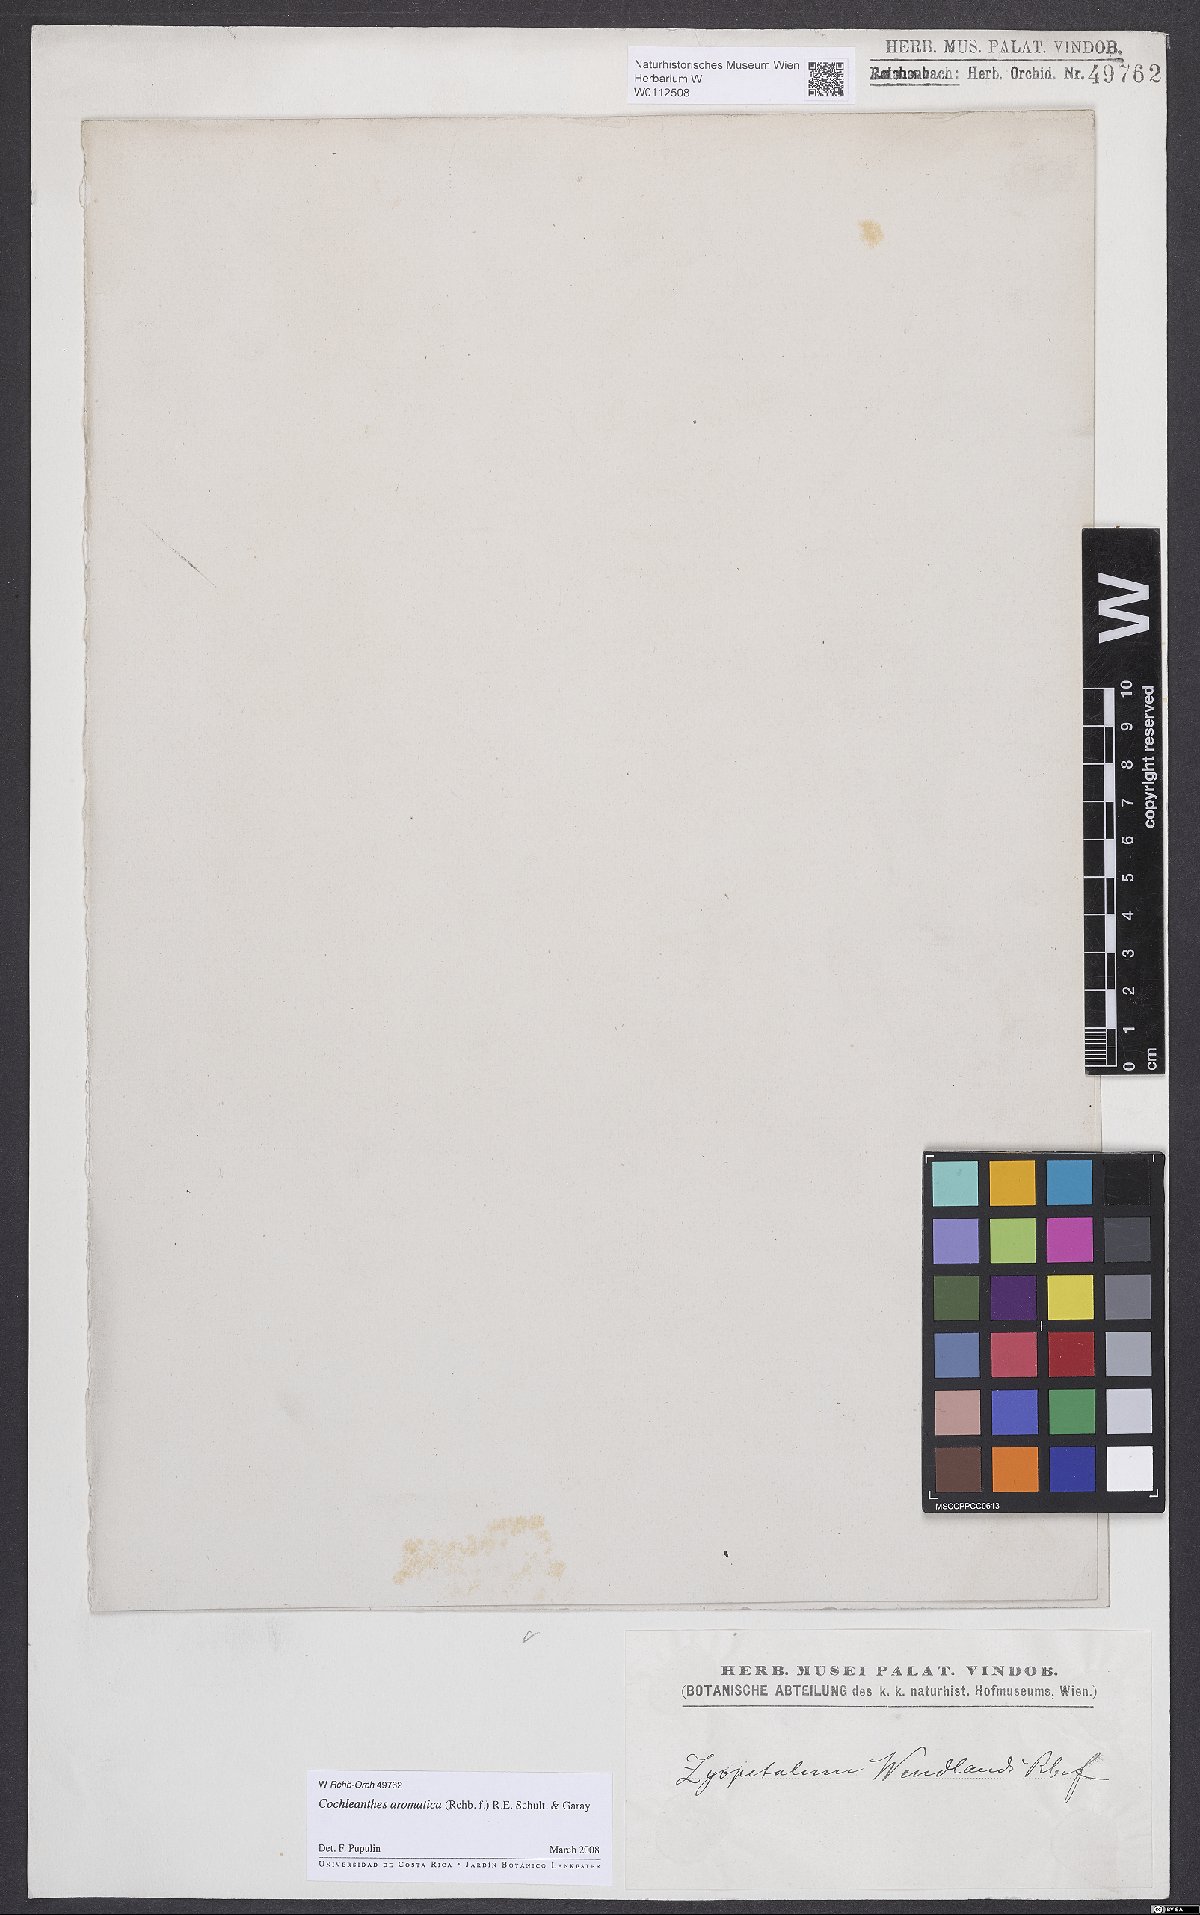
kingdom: Plantae
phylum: Tracheophyta
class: Liliopsida
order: Asparagales
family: Orchidaceae
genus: Cochleanthes
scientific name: Cochleanthes aromatica
